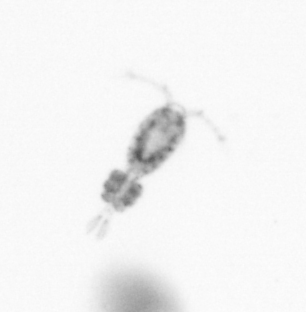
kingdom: Animalia
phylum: Arthropoda
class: Copepoda
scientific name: Copepoda
